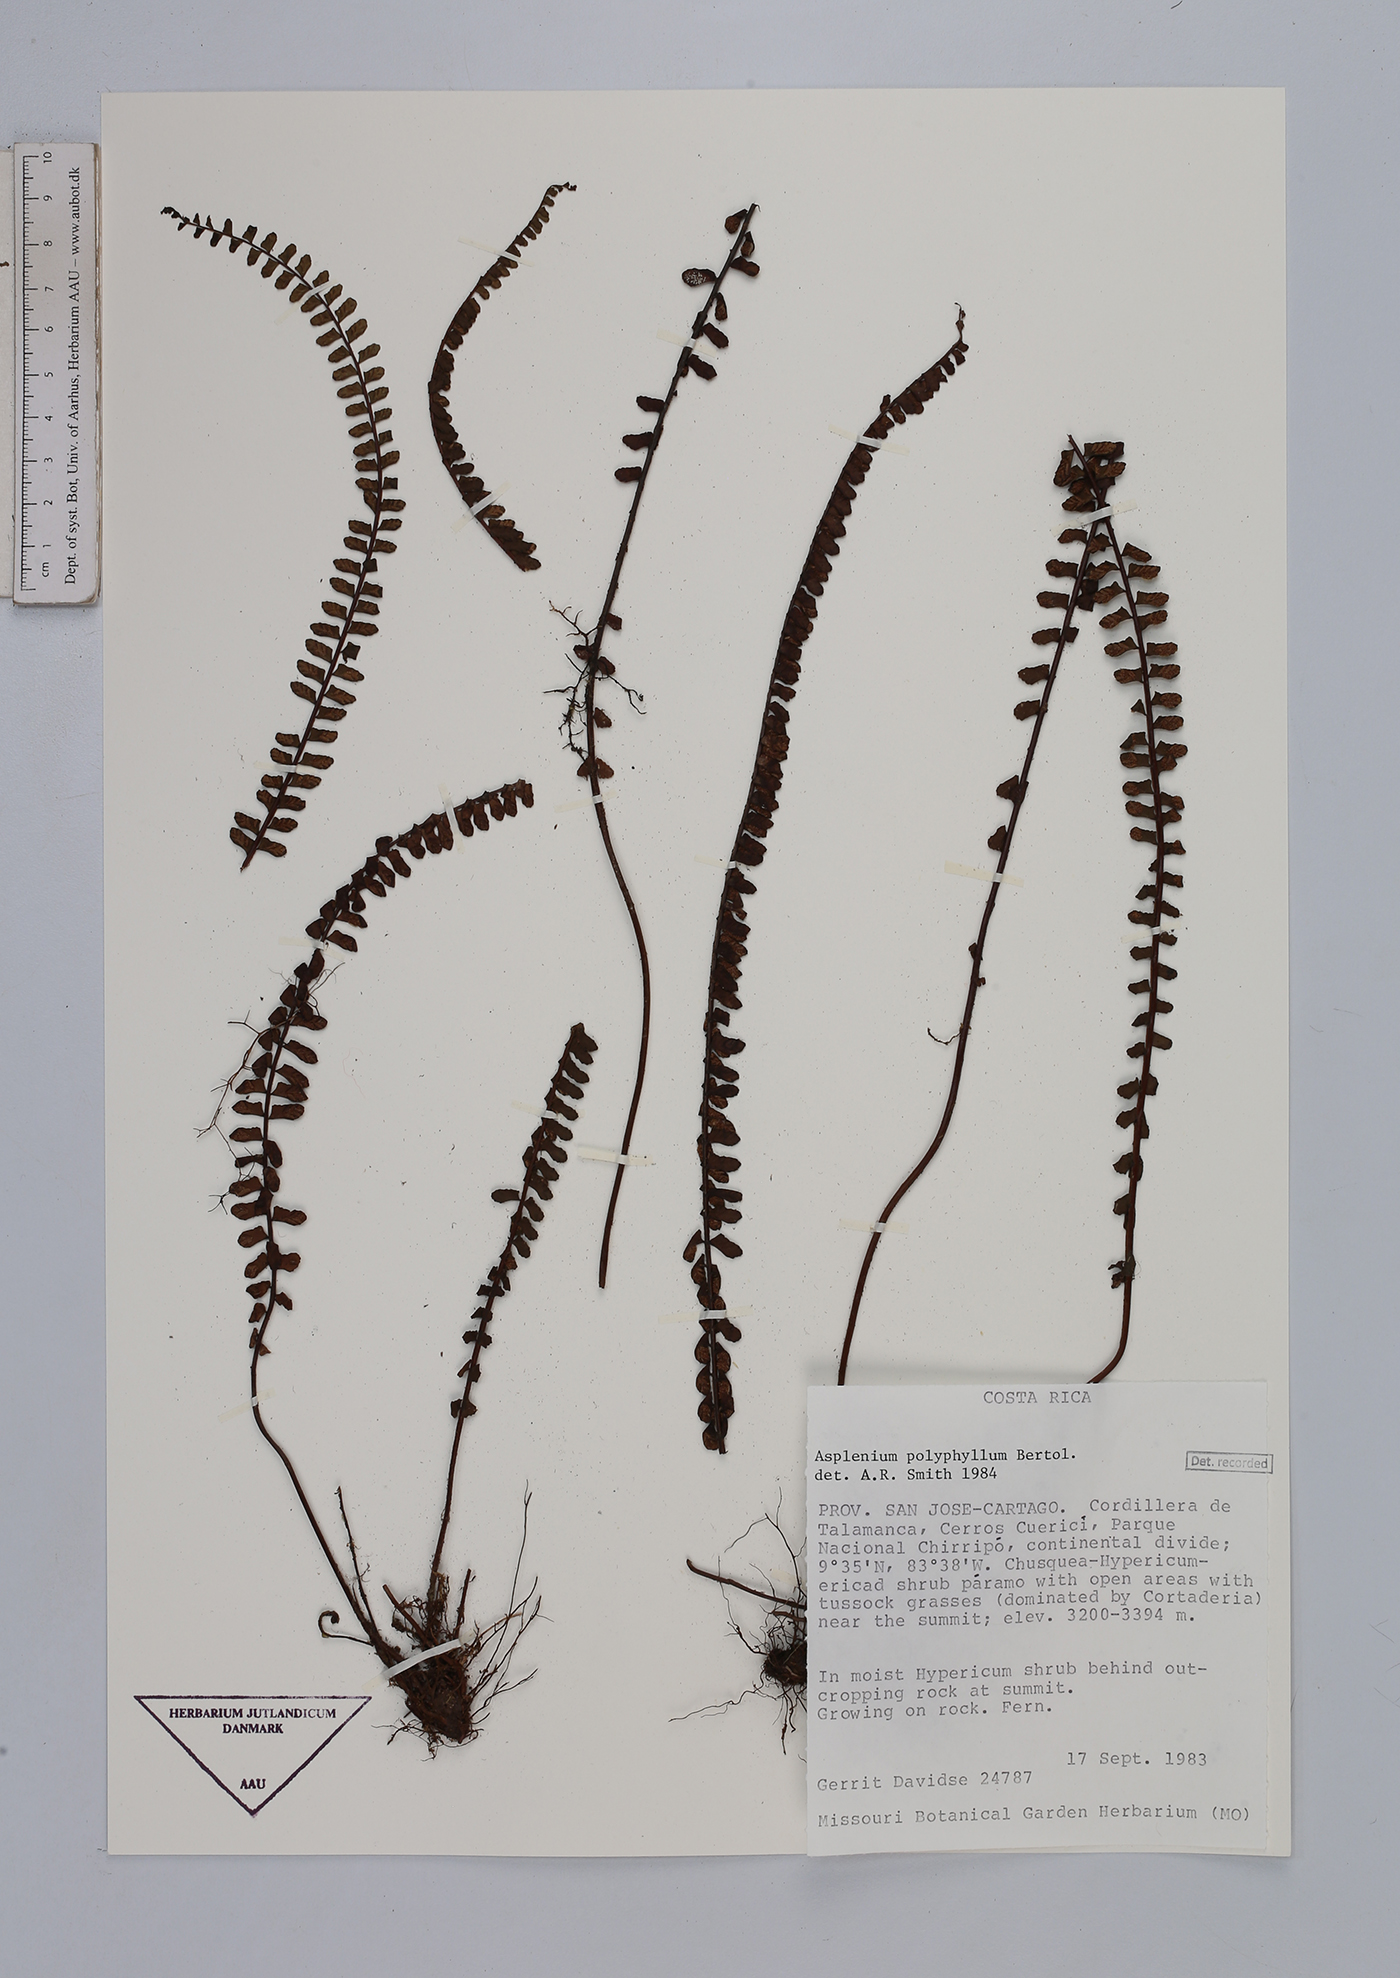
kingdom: Plantae
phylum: Tracheophyta
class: Polypodiopsida
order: Polypodiales
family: Aspleniaceae
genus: Asplenium
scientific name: Asplenium polyphyllum
